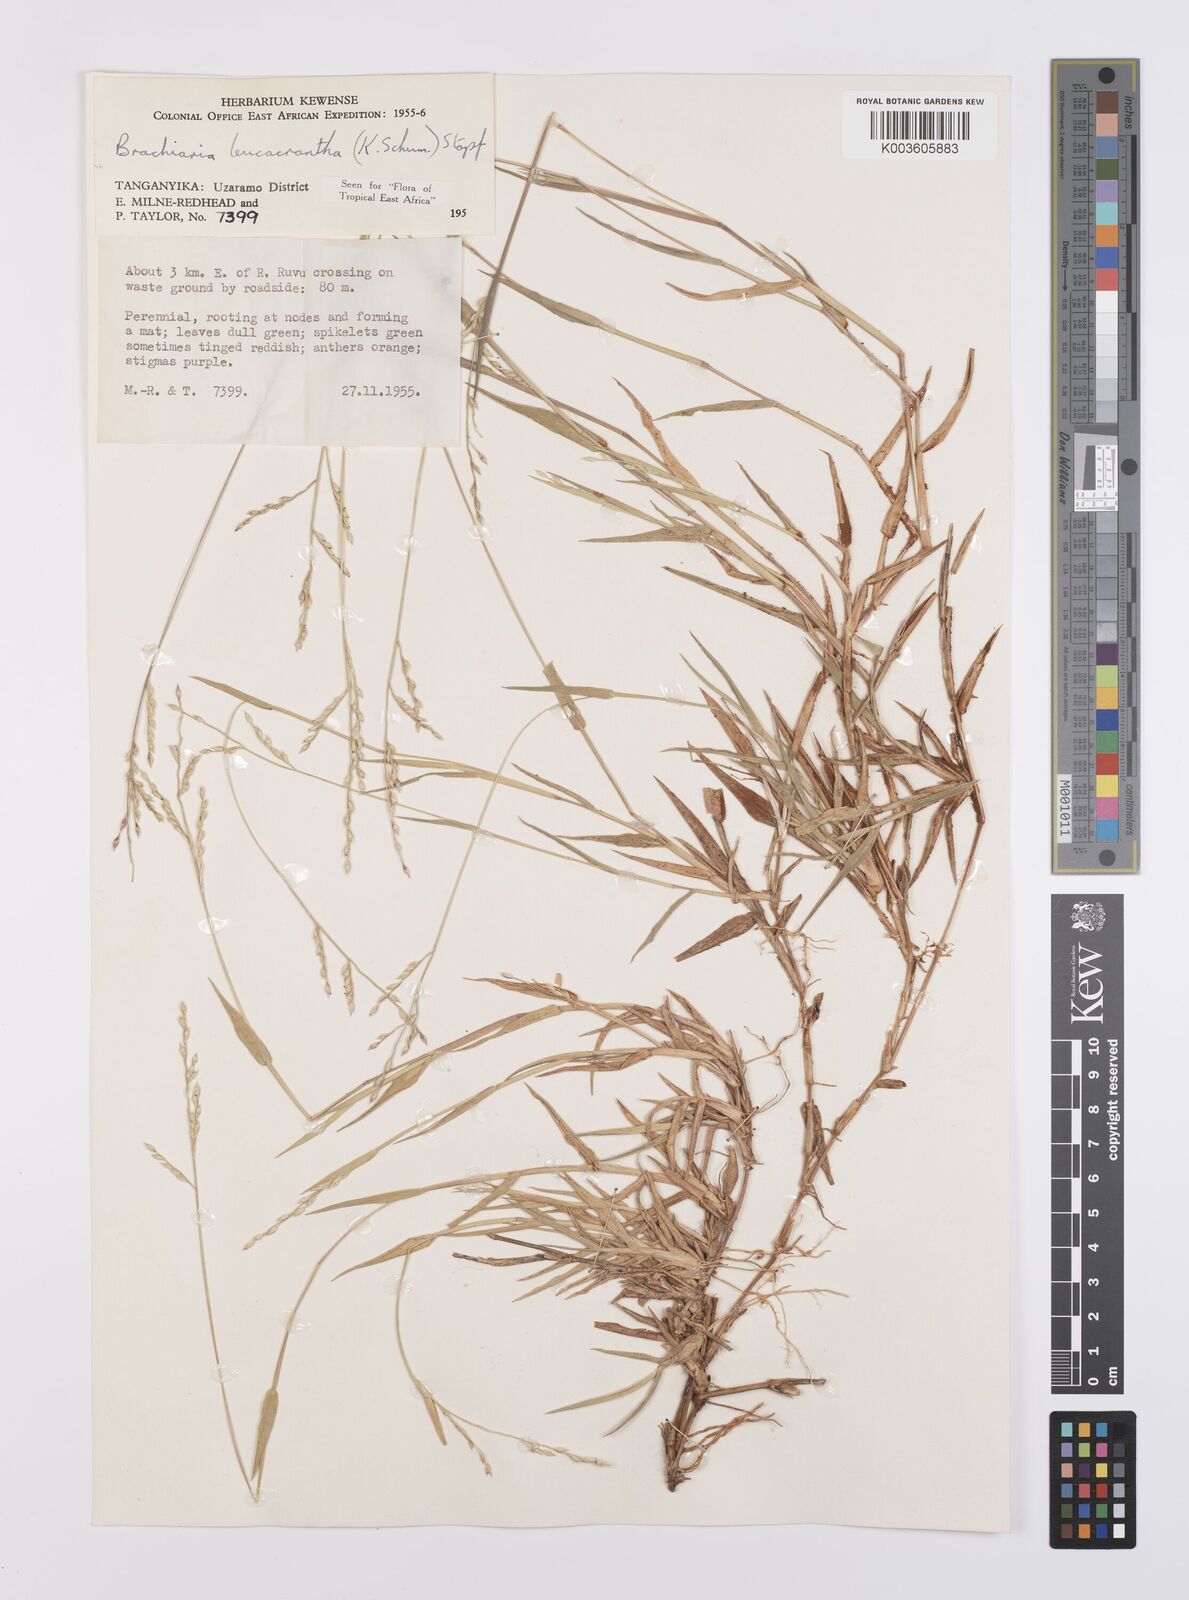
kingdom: Plantae
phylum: Tracheophyta
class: Liliopsida
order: Poales
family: Poaceae
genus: Urochloa
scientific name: Urochloa xantholeuca
